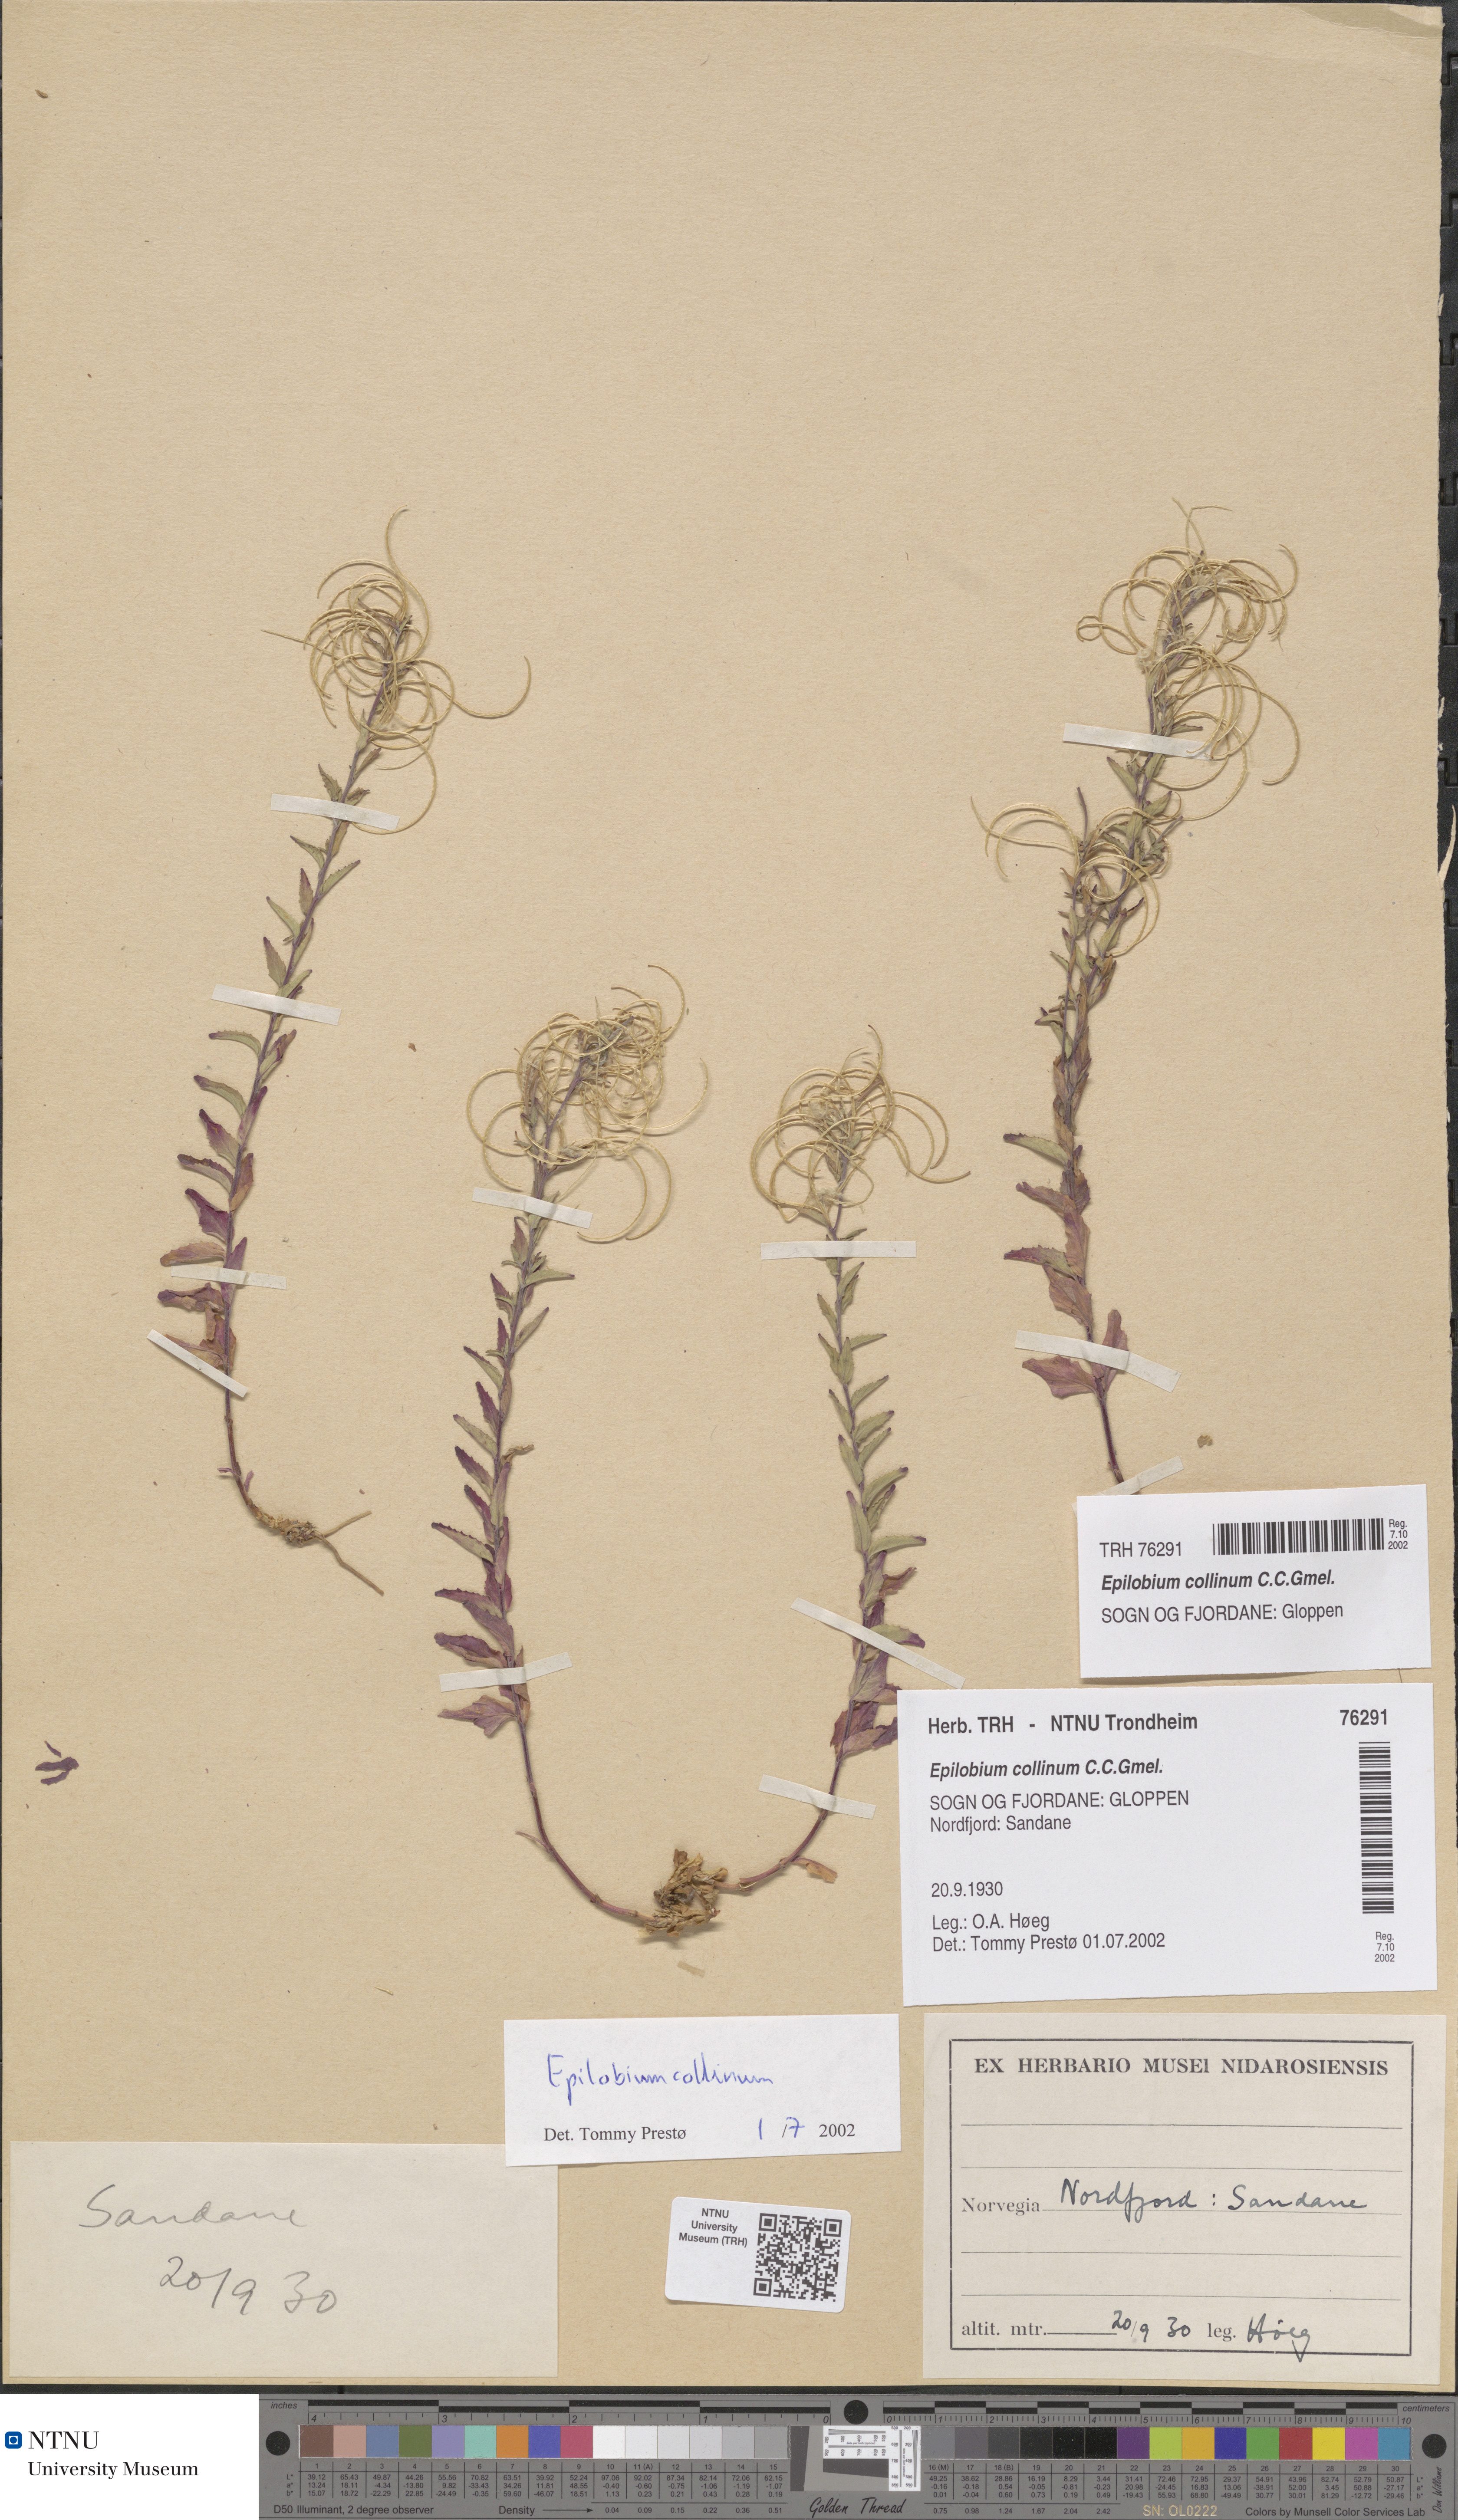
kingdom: Plantae
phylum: Tracheophyta
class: Magnoliopsida
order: Myrtales
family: Onagraceae
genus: Epilobium
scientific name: Epilobium collinum
